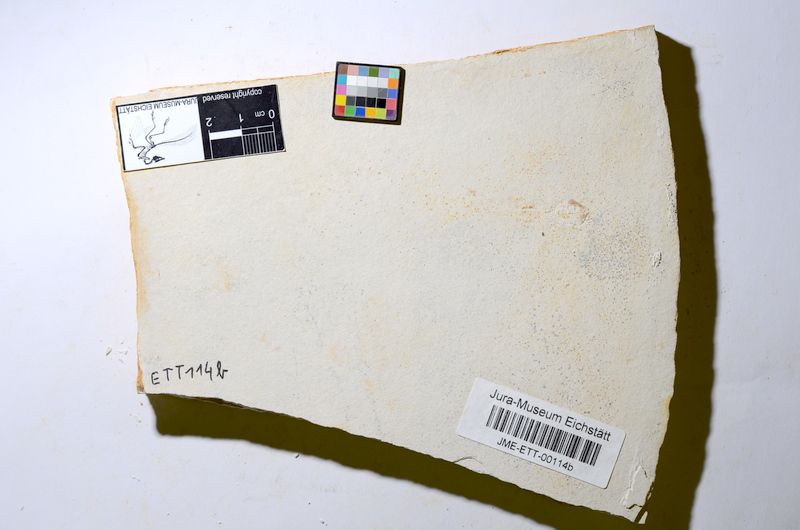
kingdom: Animalia
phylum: Chordata
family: Ascalaboidae
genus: Ebertichthys
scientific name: Ebertichthys ettlingensis
